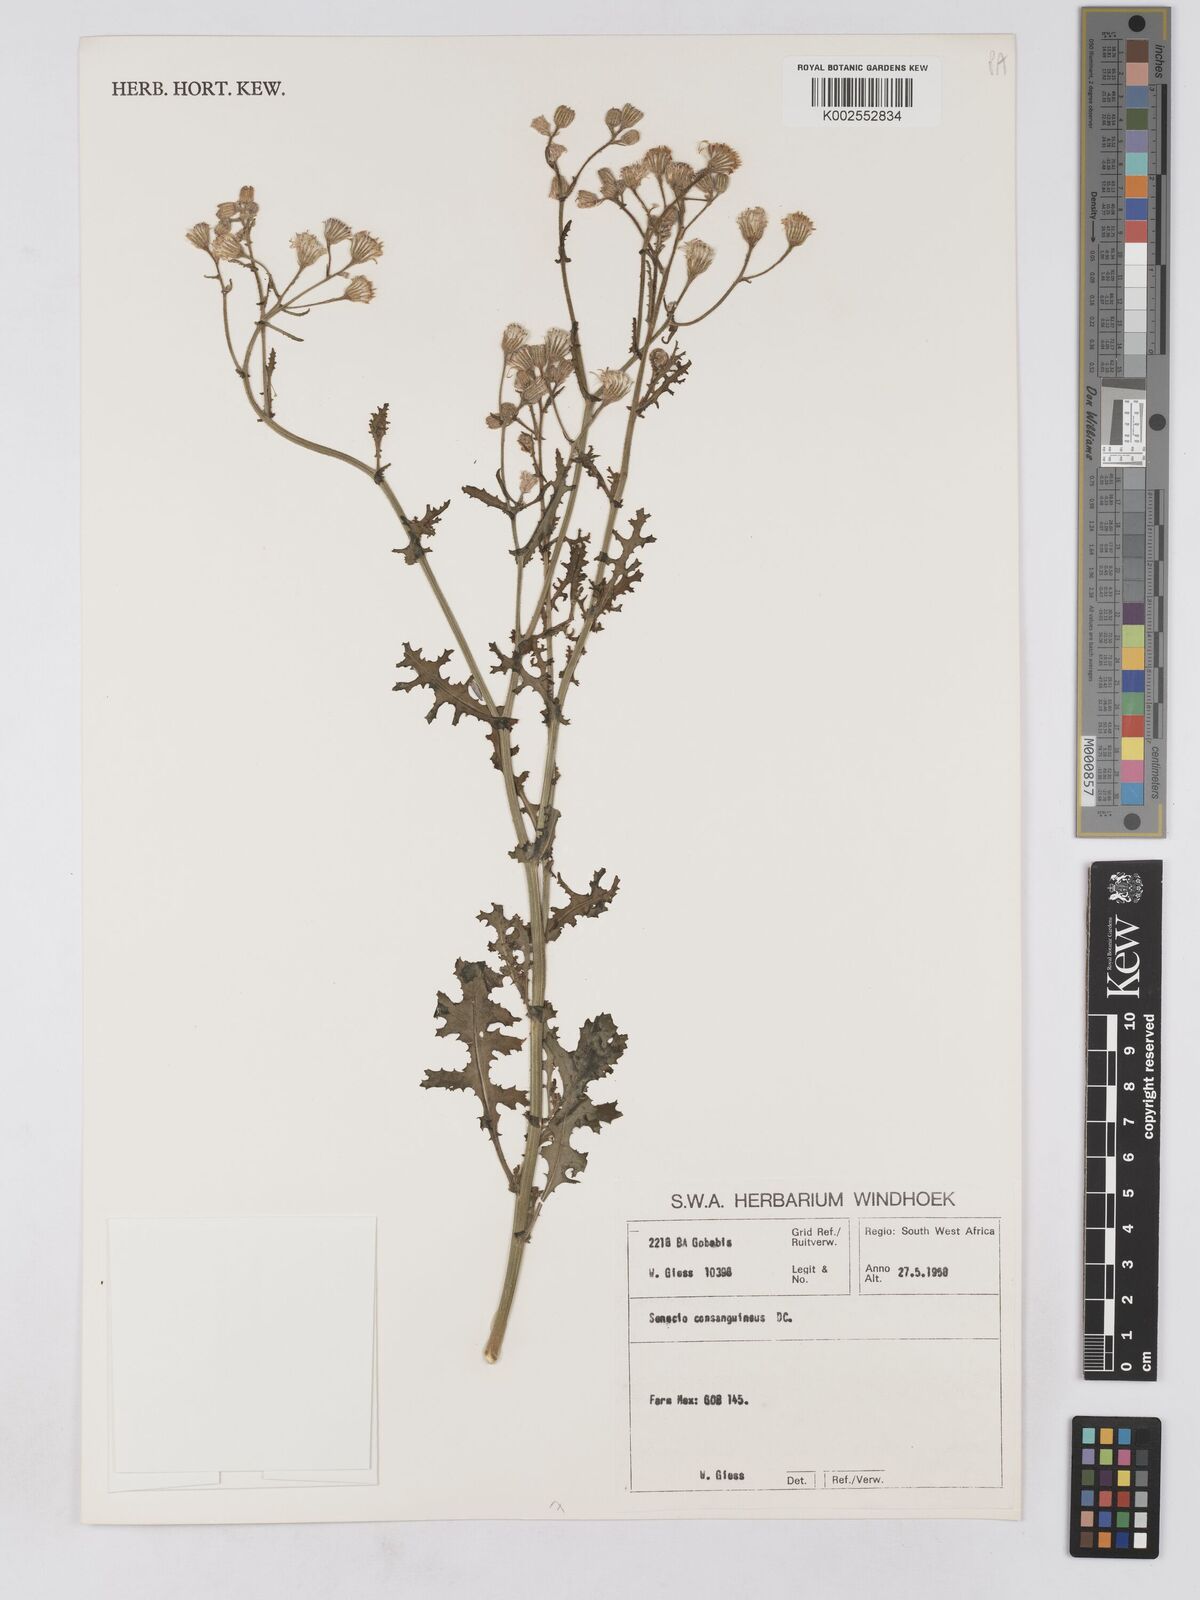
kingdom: Plantae
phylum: Tracheophyta
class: Magnoliopsida
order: Asterales
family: Asteraceae
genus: Senecio
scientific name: Senecio consanguineus
